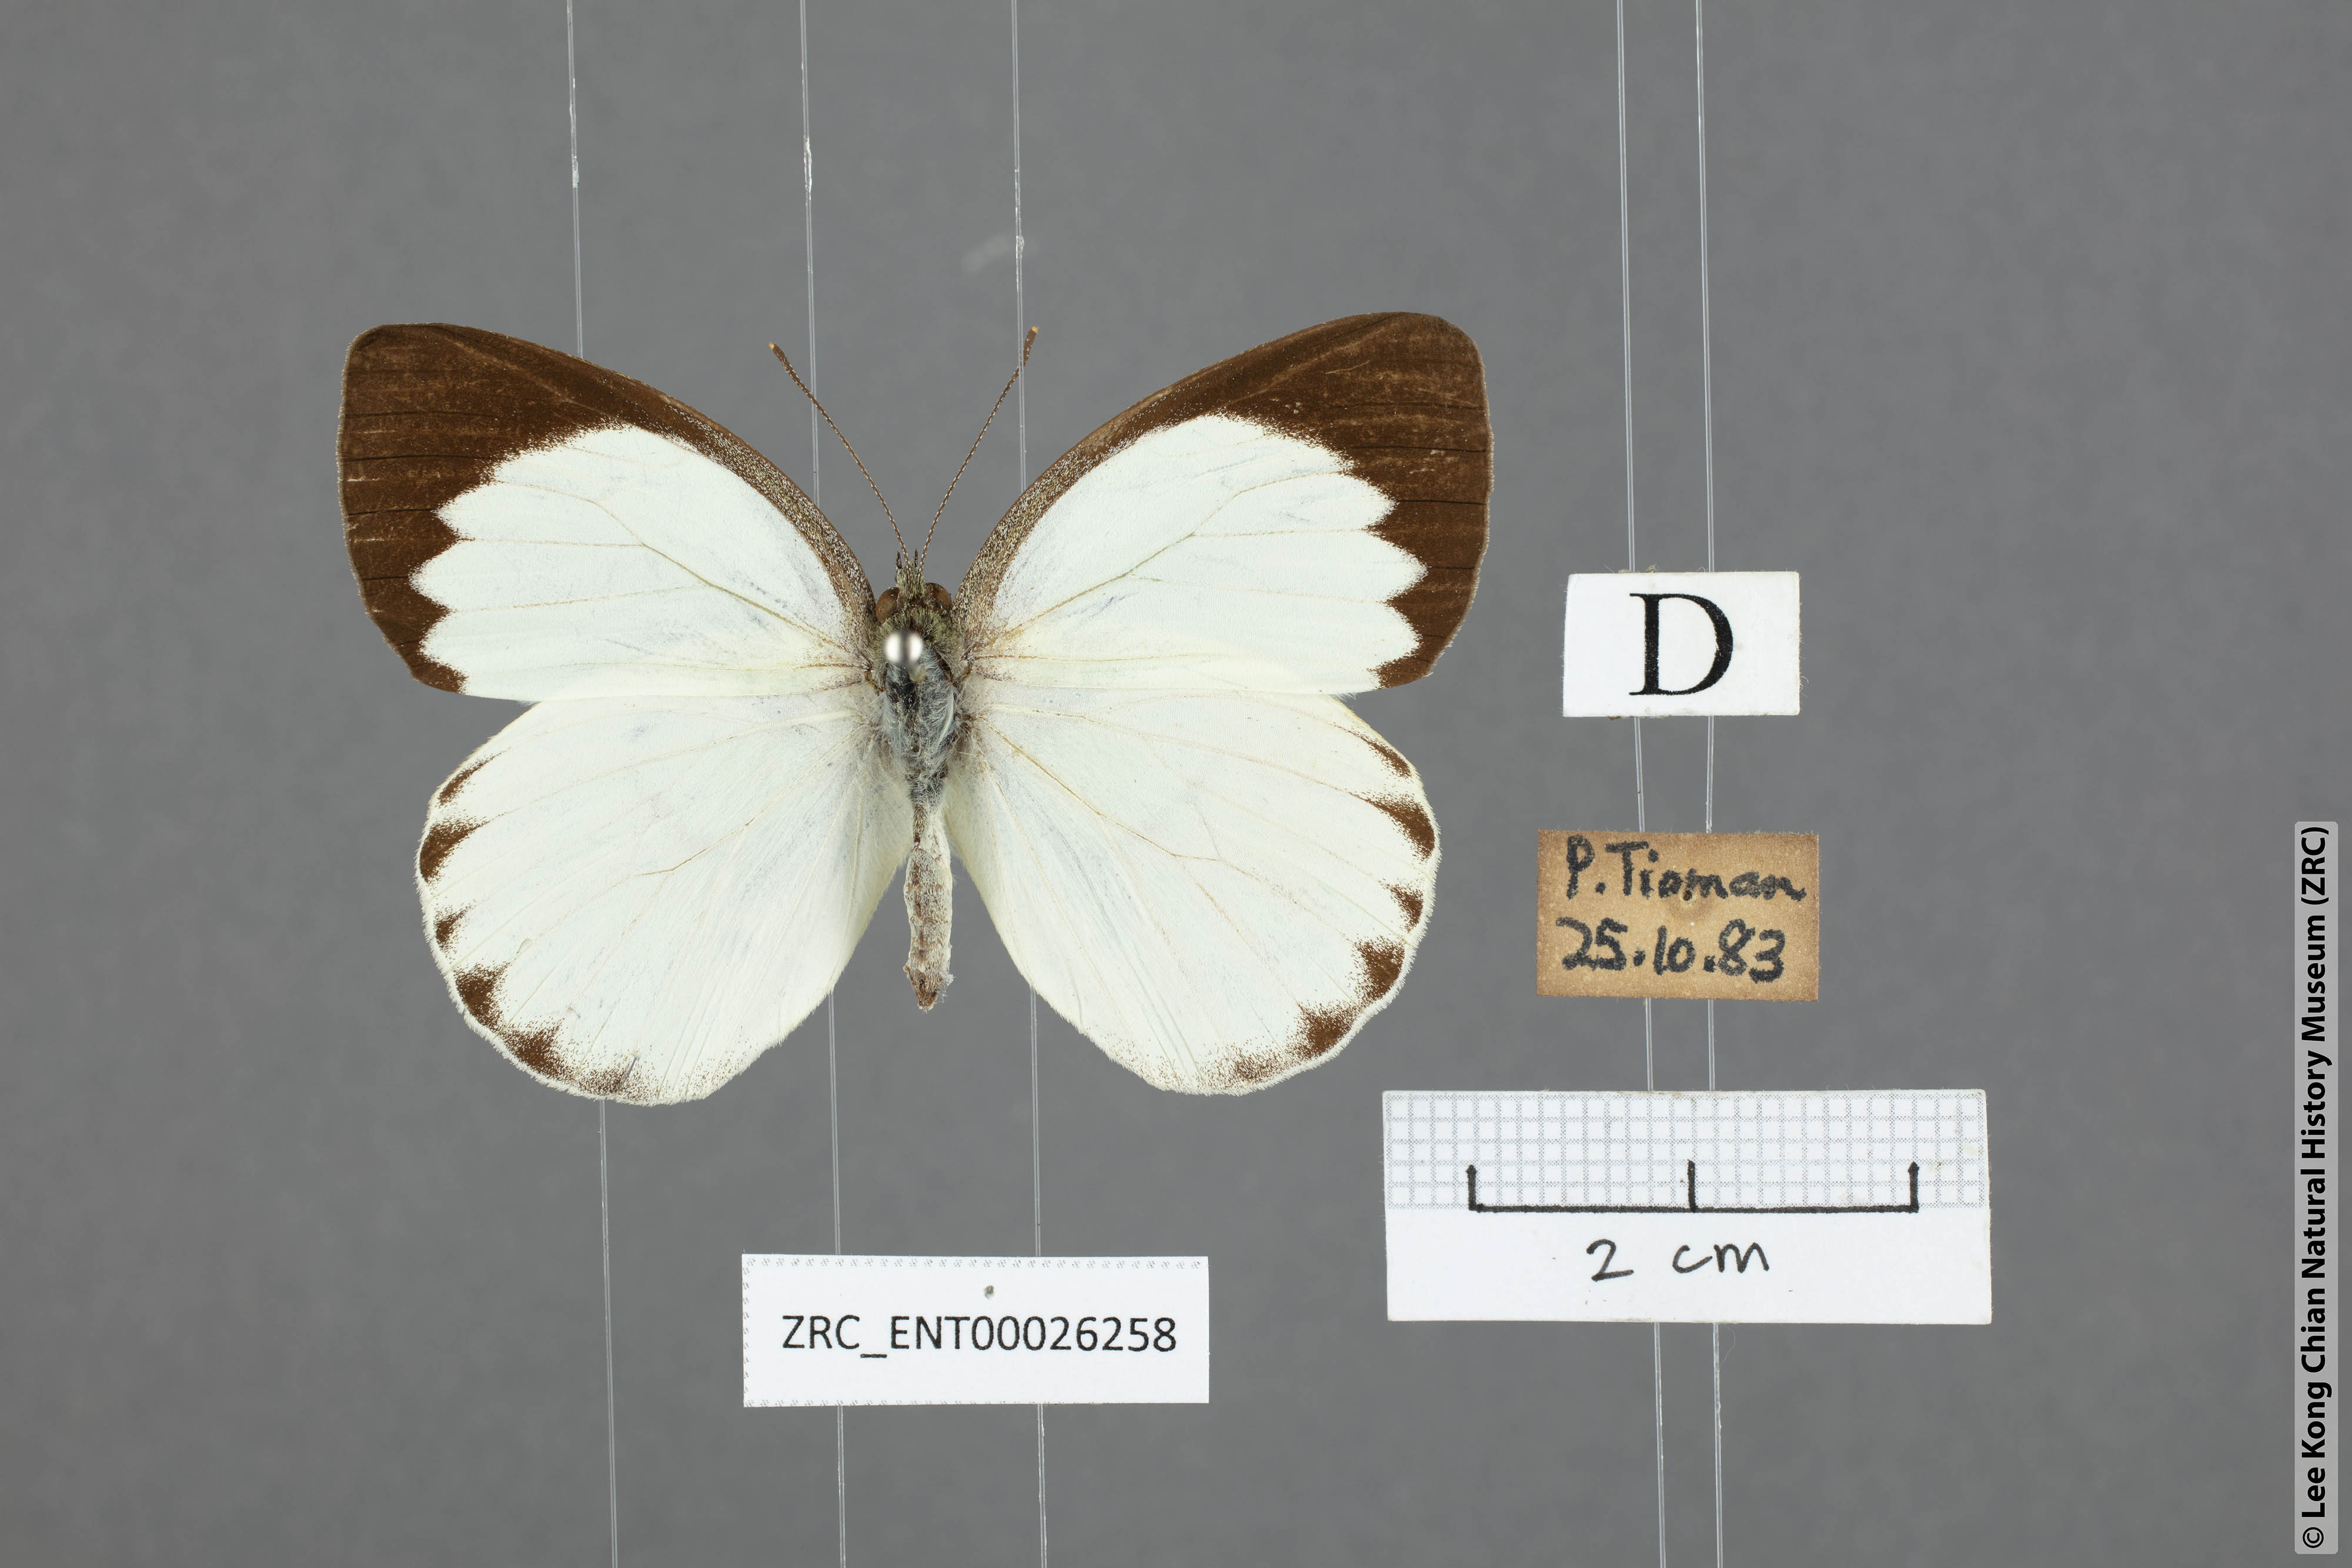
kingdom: Animalia
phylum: Arthropoda
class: Insecta
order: Lepidoptera
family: Pieridae
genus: Phrissura
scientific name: Phrissura aegis
